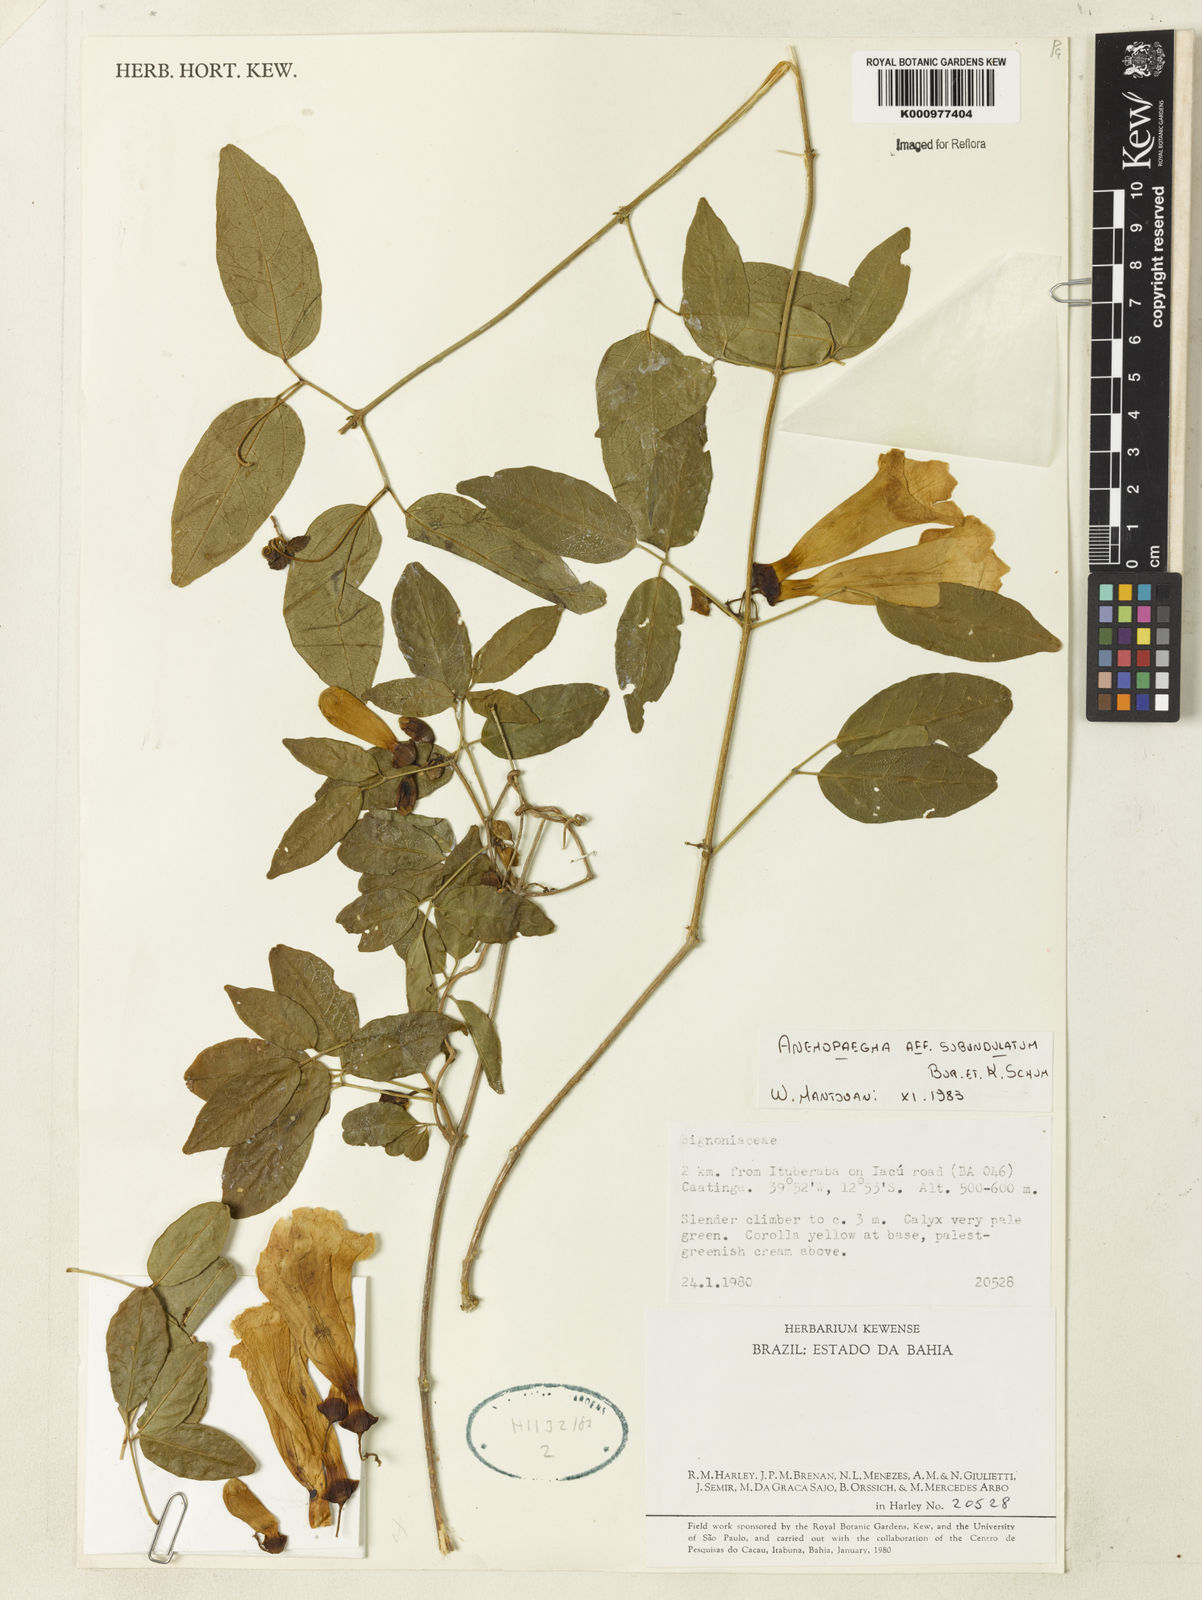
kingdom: Plantae
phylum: Tracheophyta
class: Magnoliopsida
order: Lamiales
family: Bignoniaceae
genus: Anemopaegma
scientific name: Anemopaegma gracile
